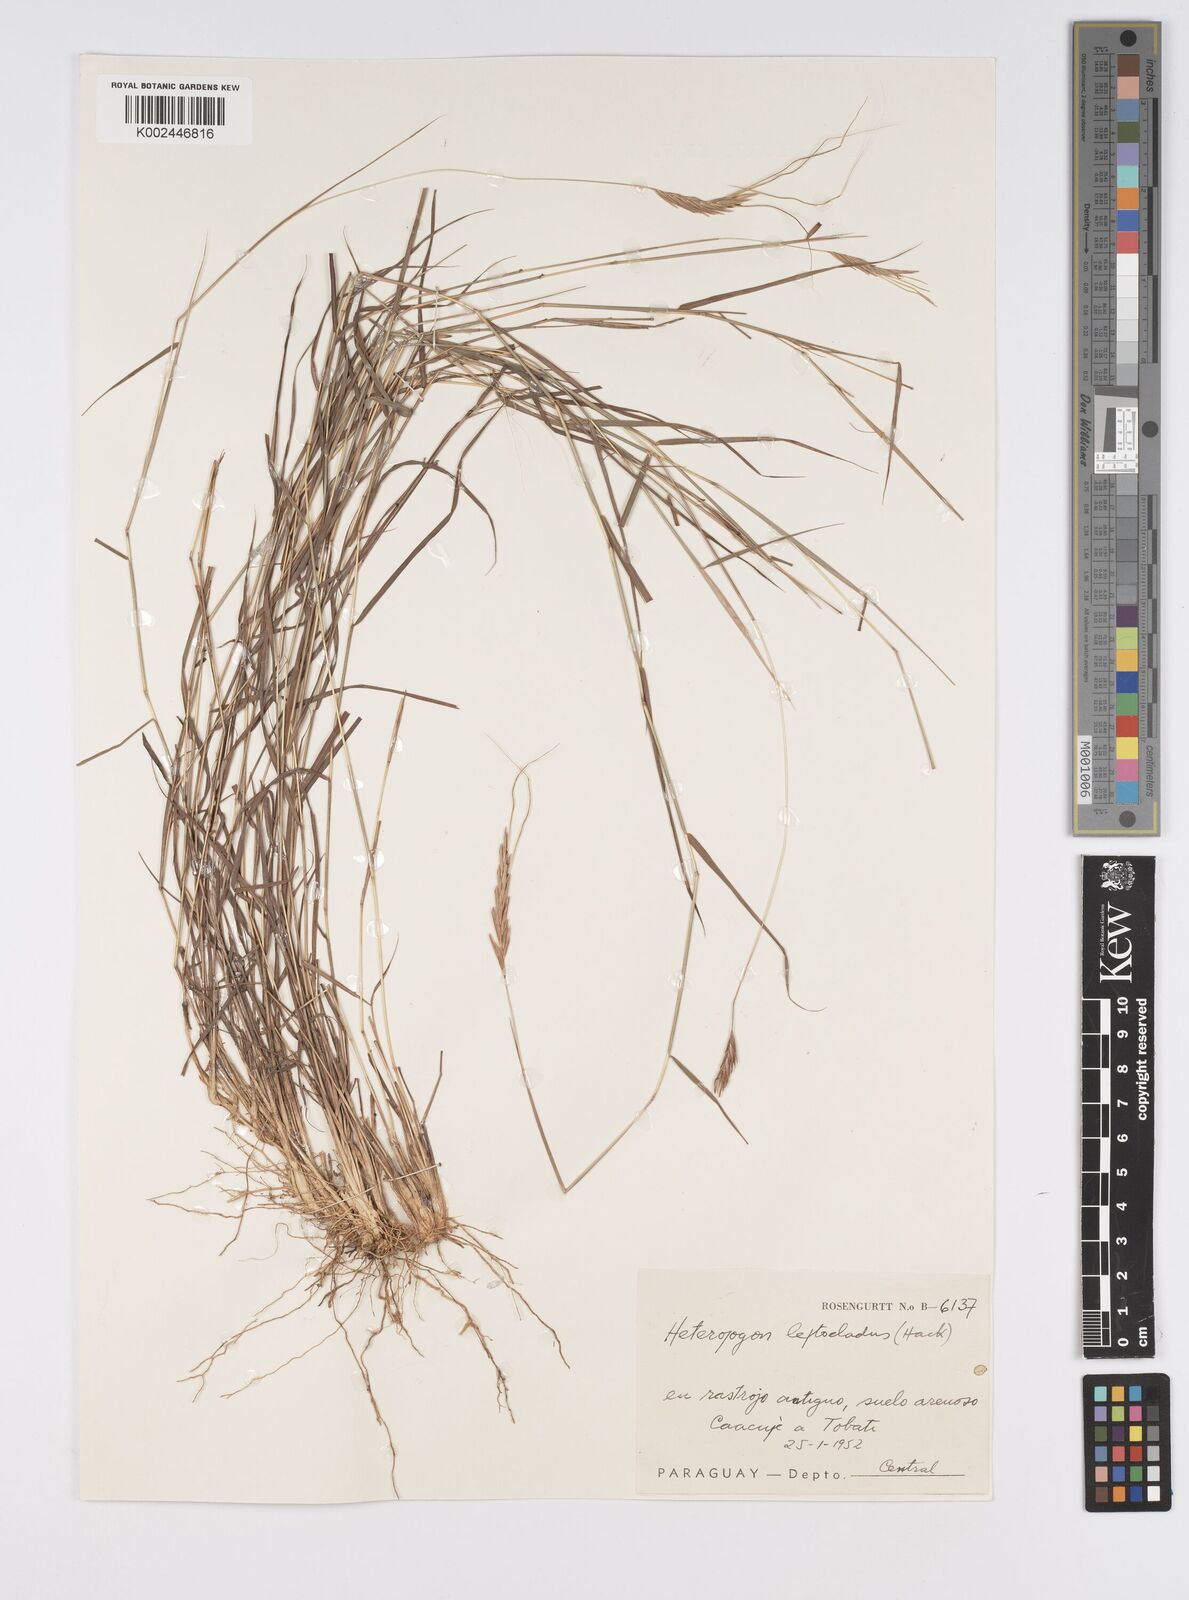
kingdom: Plantae
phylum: Tracheophyta
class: Liliopsida
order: Poales
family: Poaceae
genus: Agenium
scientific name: Agenium leptocladum
